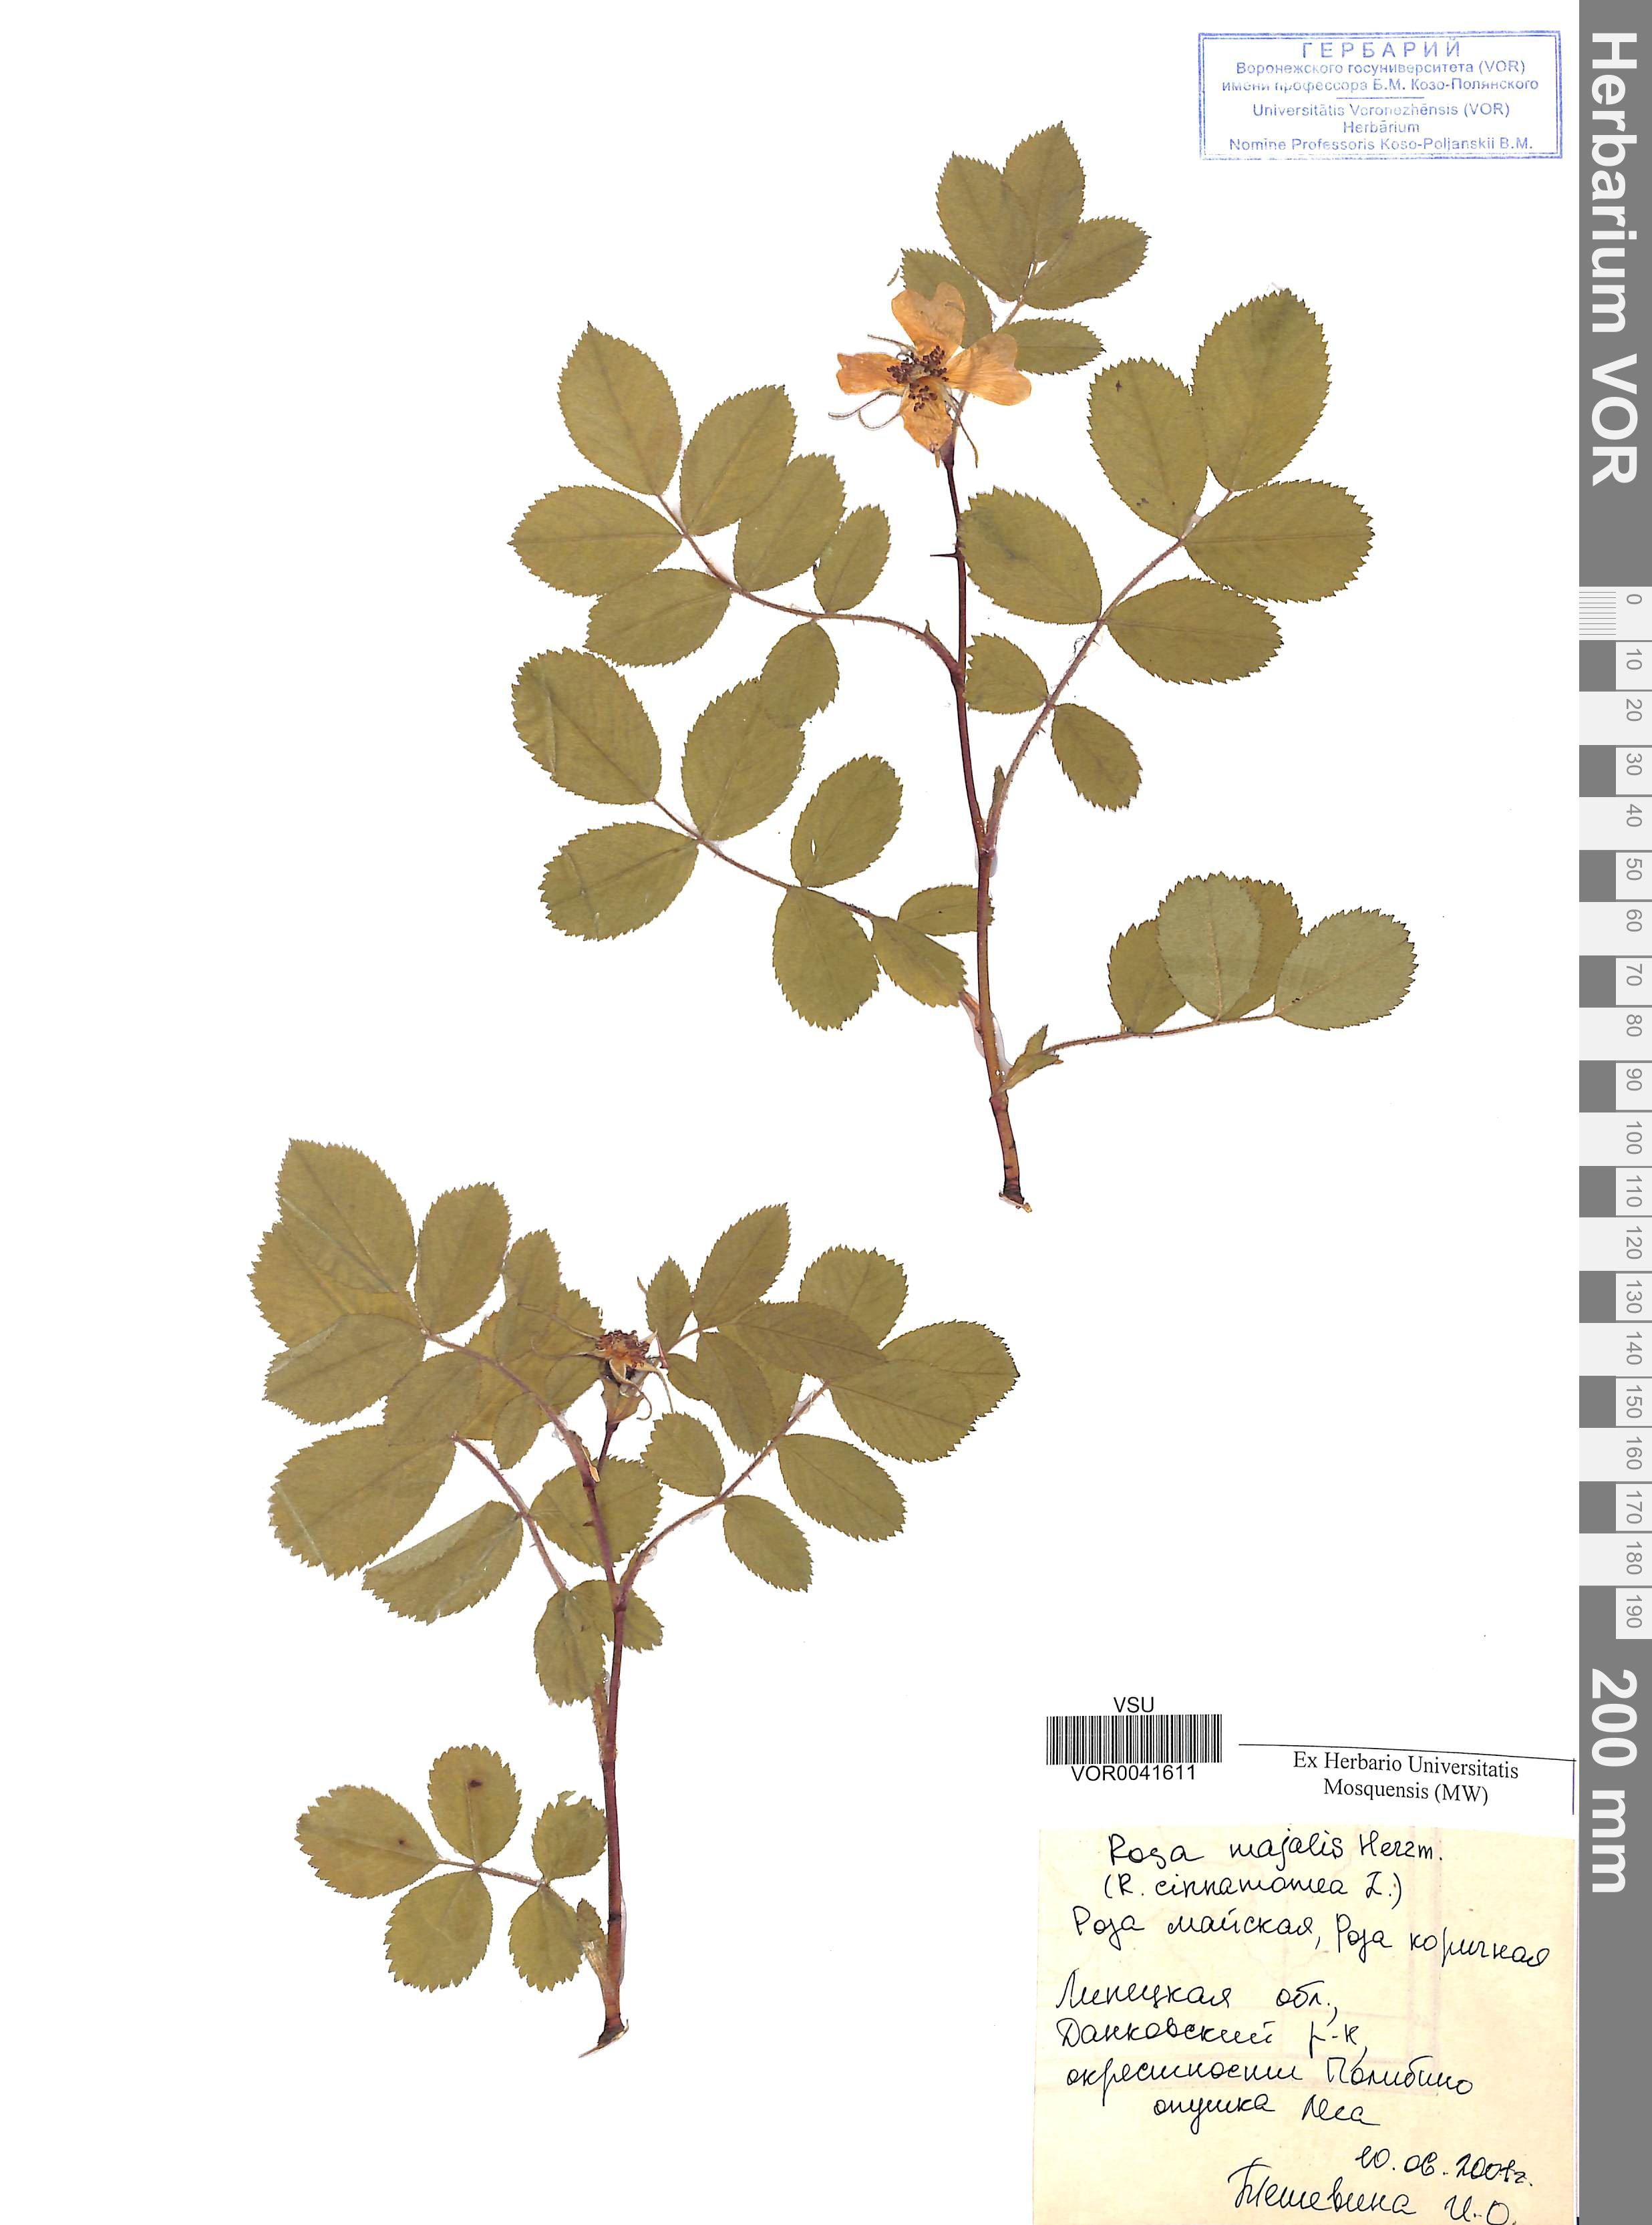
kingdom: Plantae
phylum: Tracheophyta
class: Magnoliopsida
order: Rosales
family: Rosaceae
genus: Rosa
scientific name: Rosa majalis
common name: Cinnamon rose
